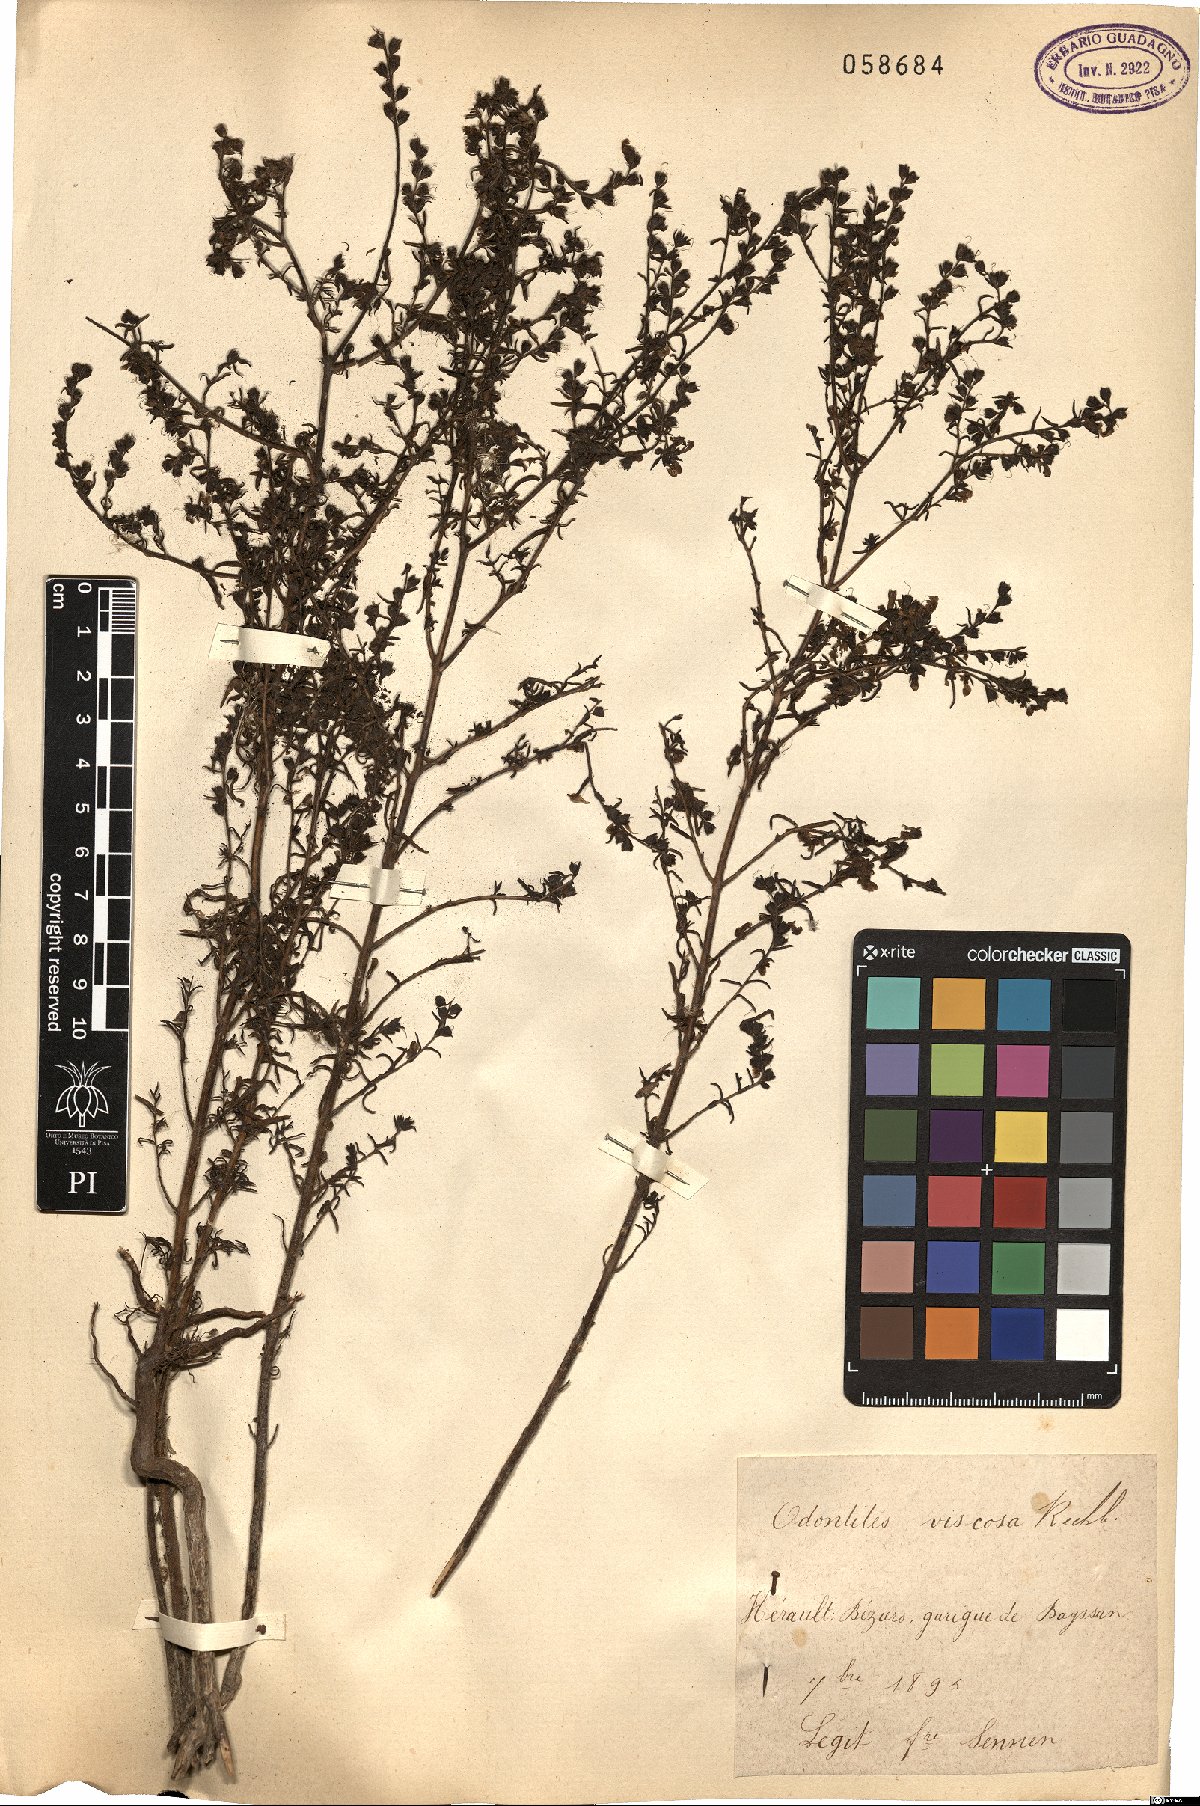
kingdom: Plantae
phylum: Tracheophyta
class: Magnoliopsida
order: Lamiales
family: Scrophulariaceae
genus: Odontites
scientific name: Odontites viscosus
